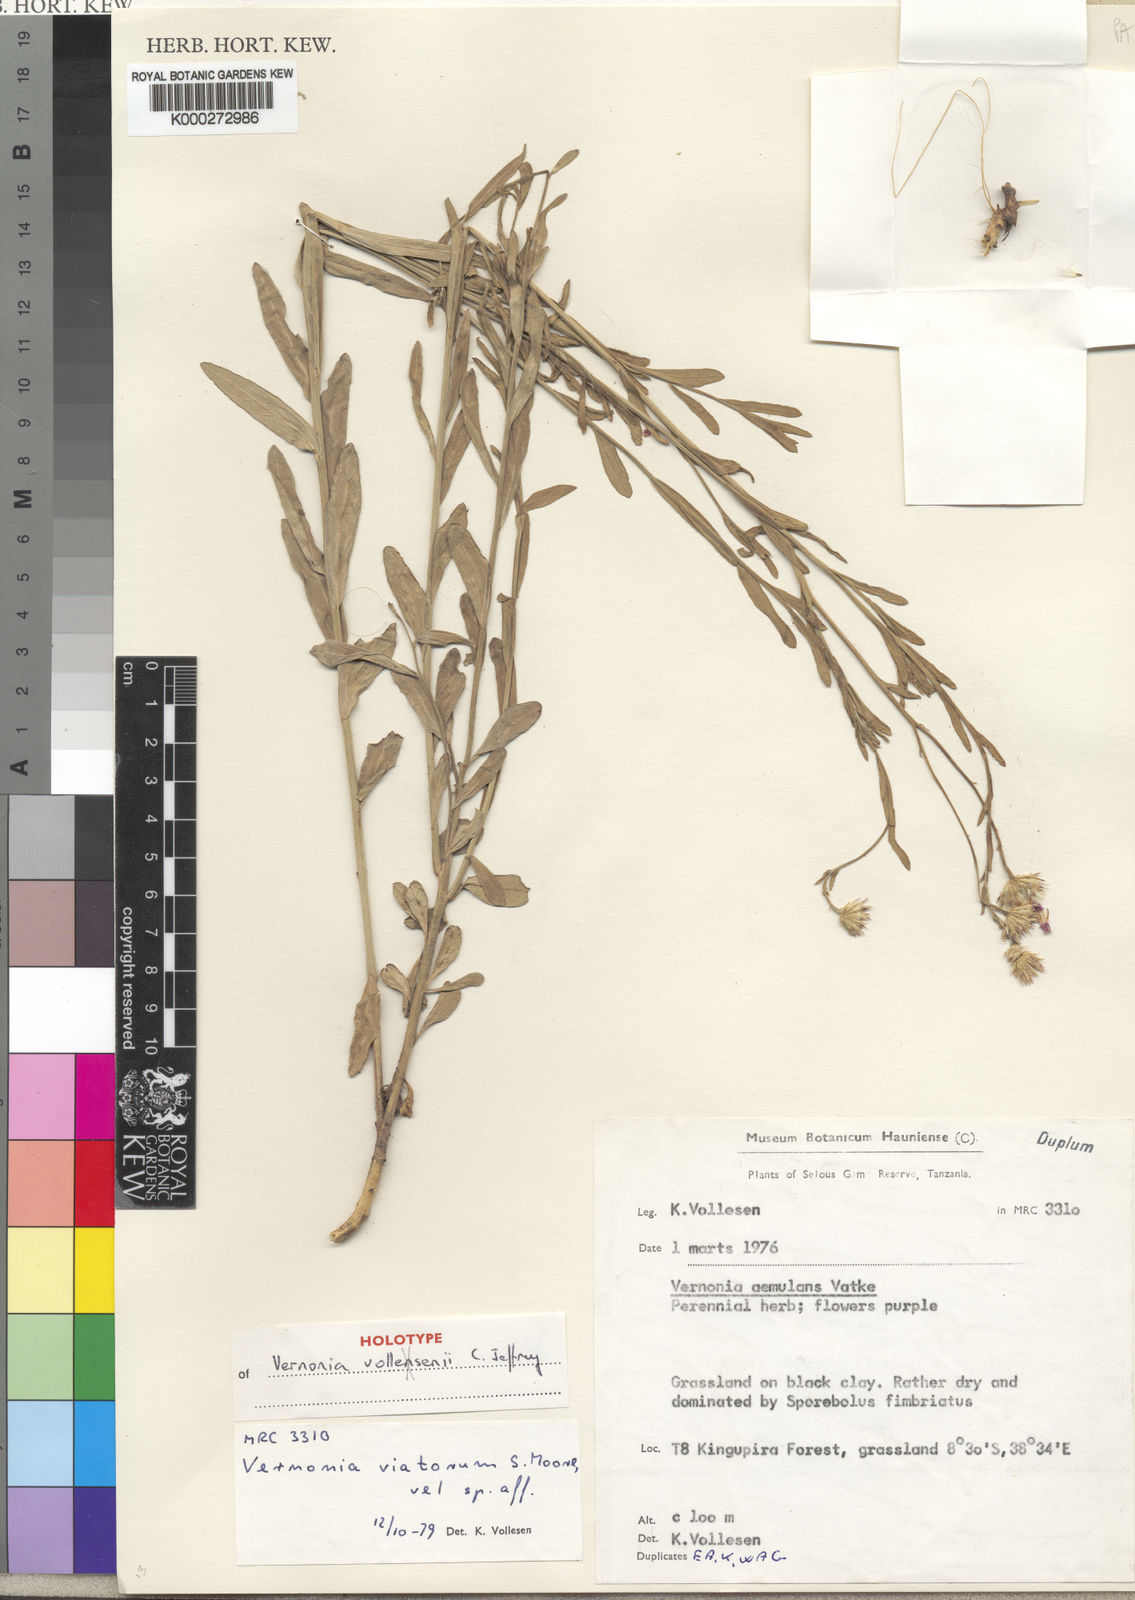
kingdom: Plantae
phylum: Tracheophyta
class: Magnoliopsida
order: Asterales
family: Asteraceae
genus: Vernonia
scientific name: Vernonia vollesenii
